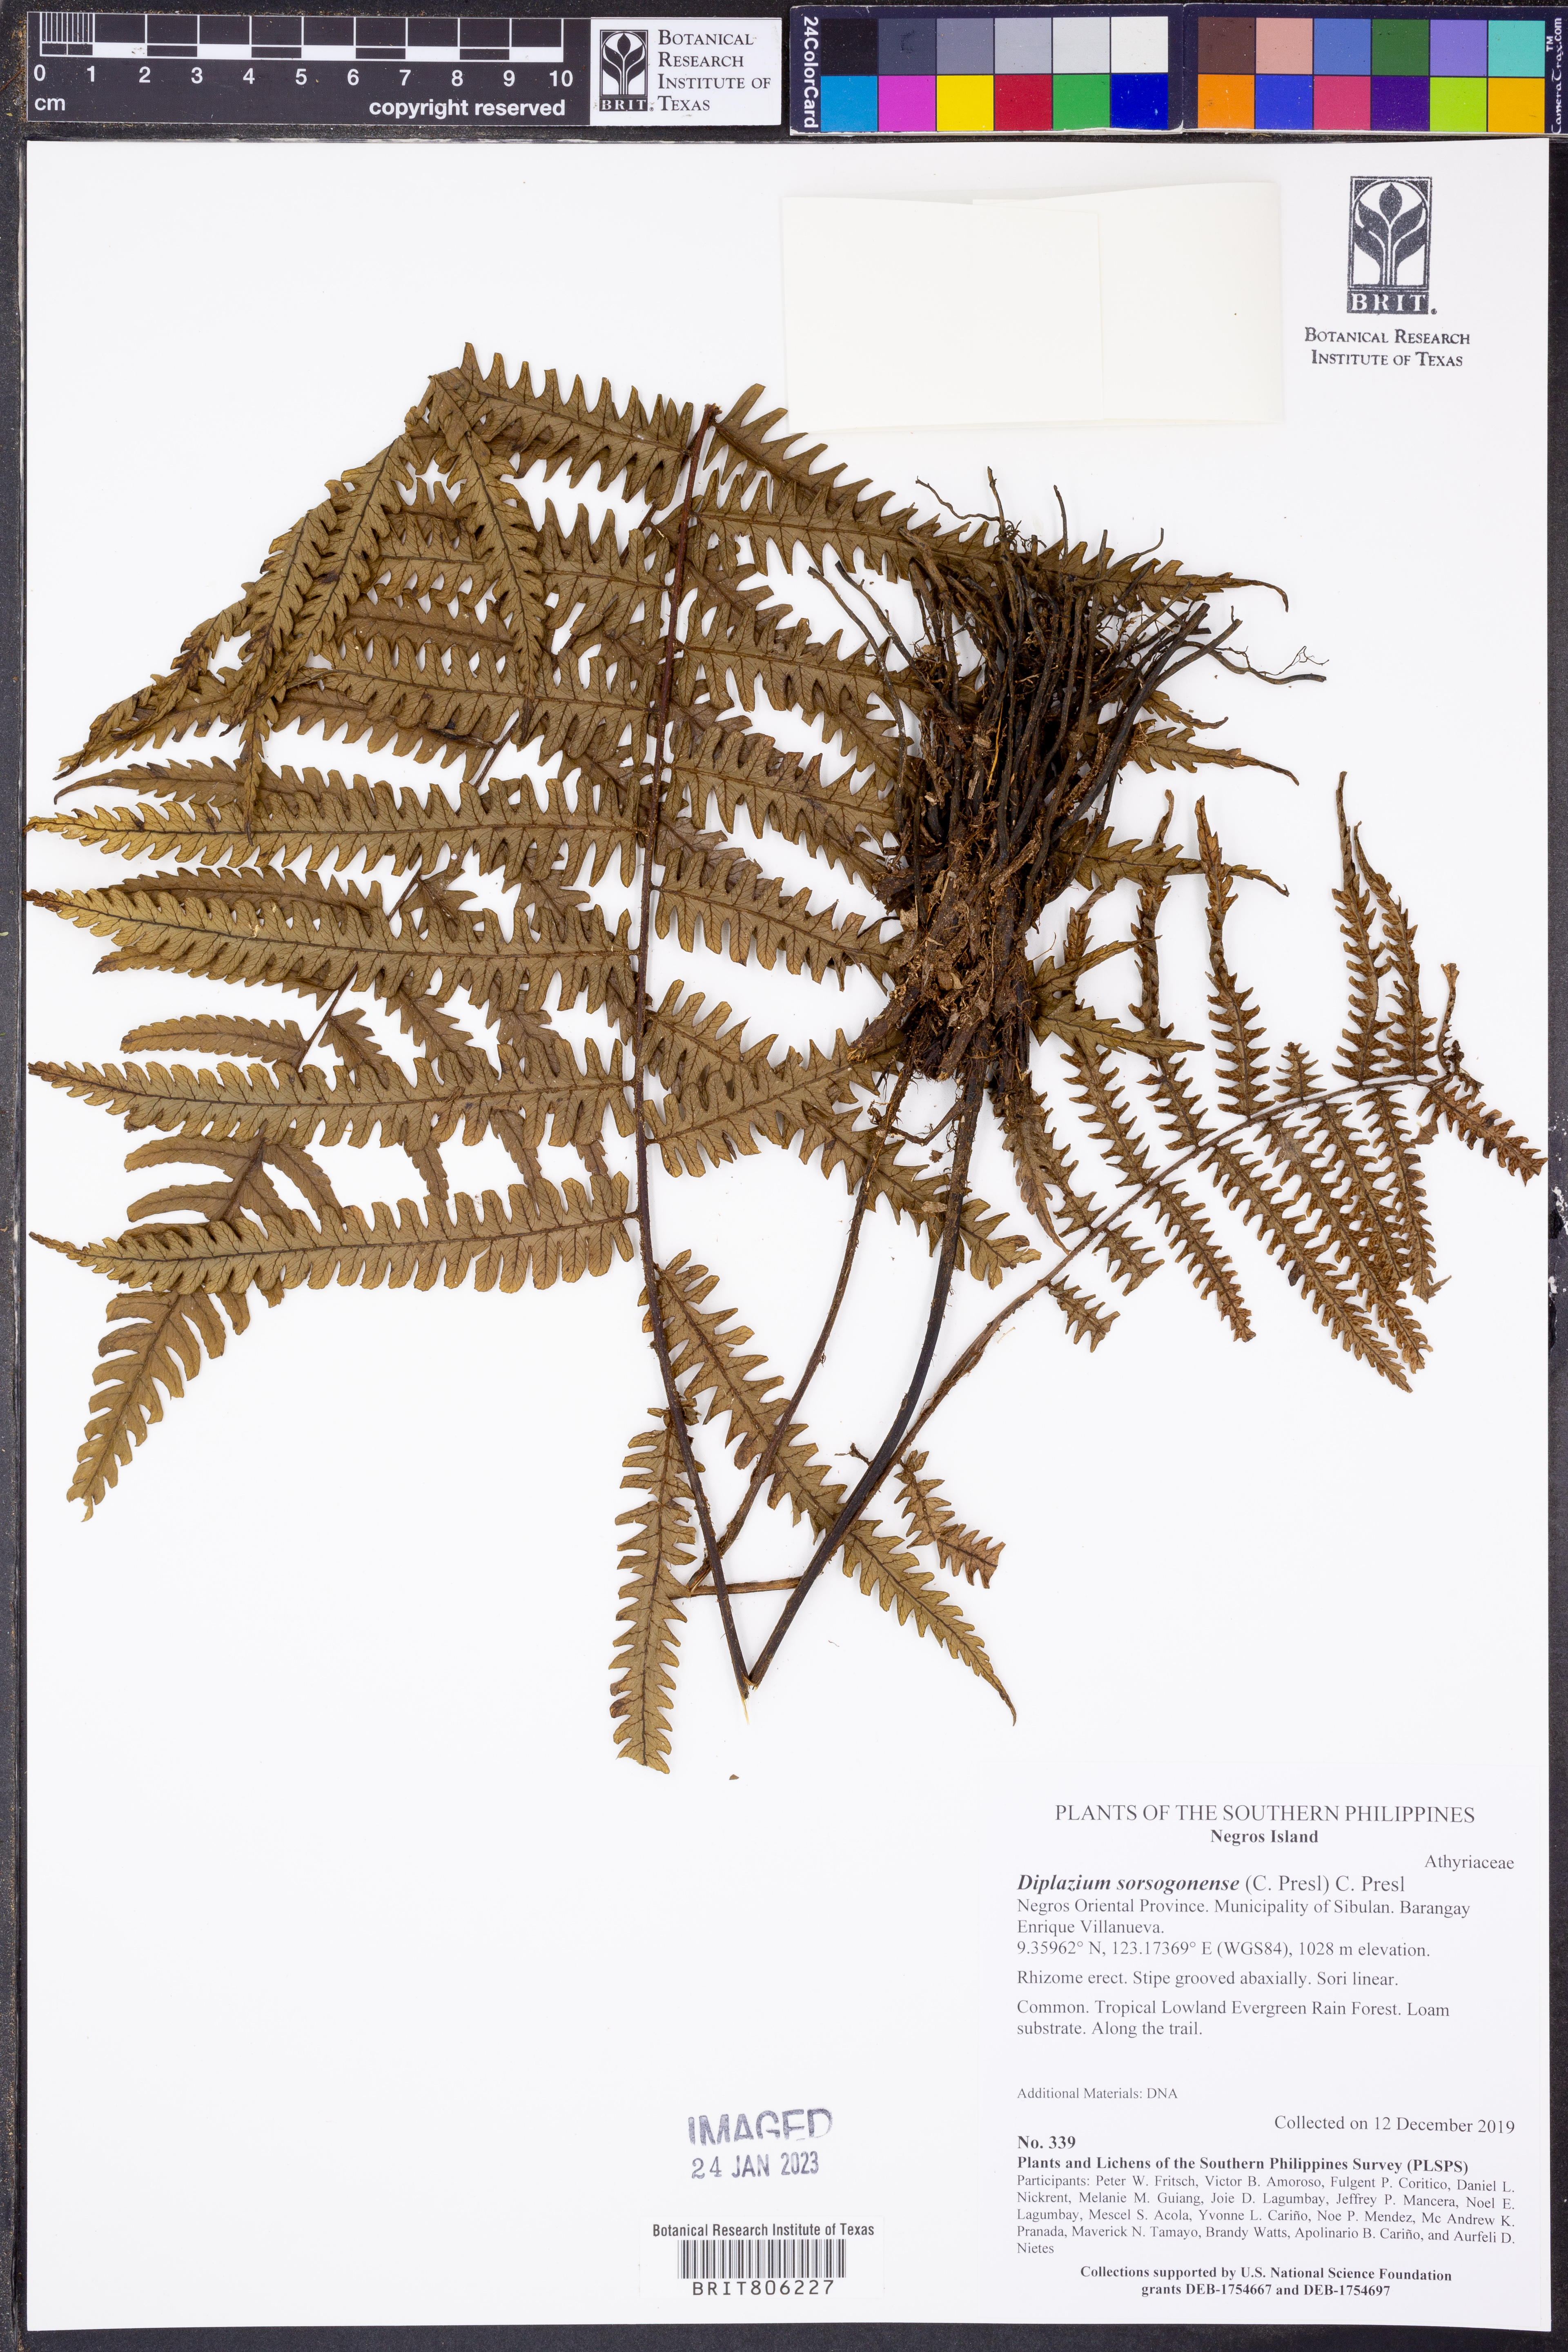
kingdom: Plantae
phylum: Tracheophyta
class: Polypodiopsida
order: Polypodiales
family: Athyriaceae
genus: Diplazium
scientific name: Diplazium sorzogonense
